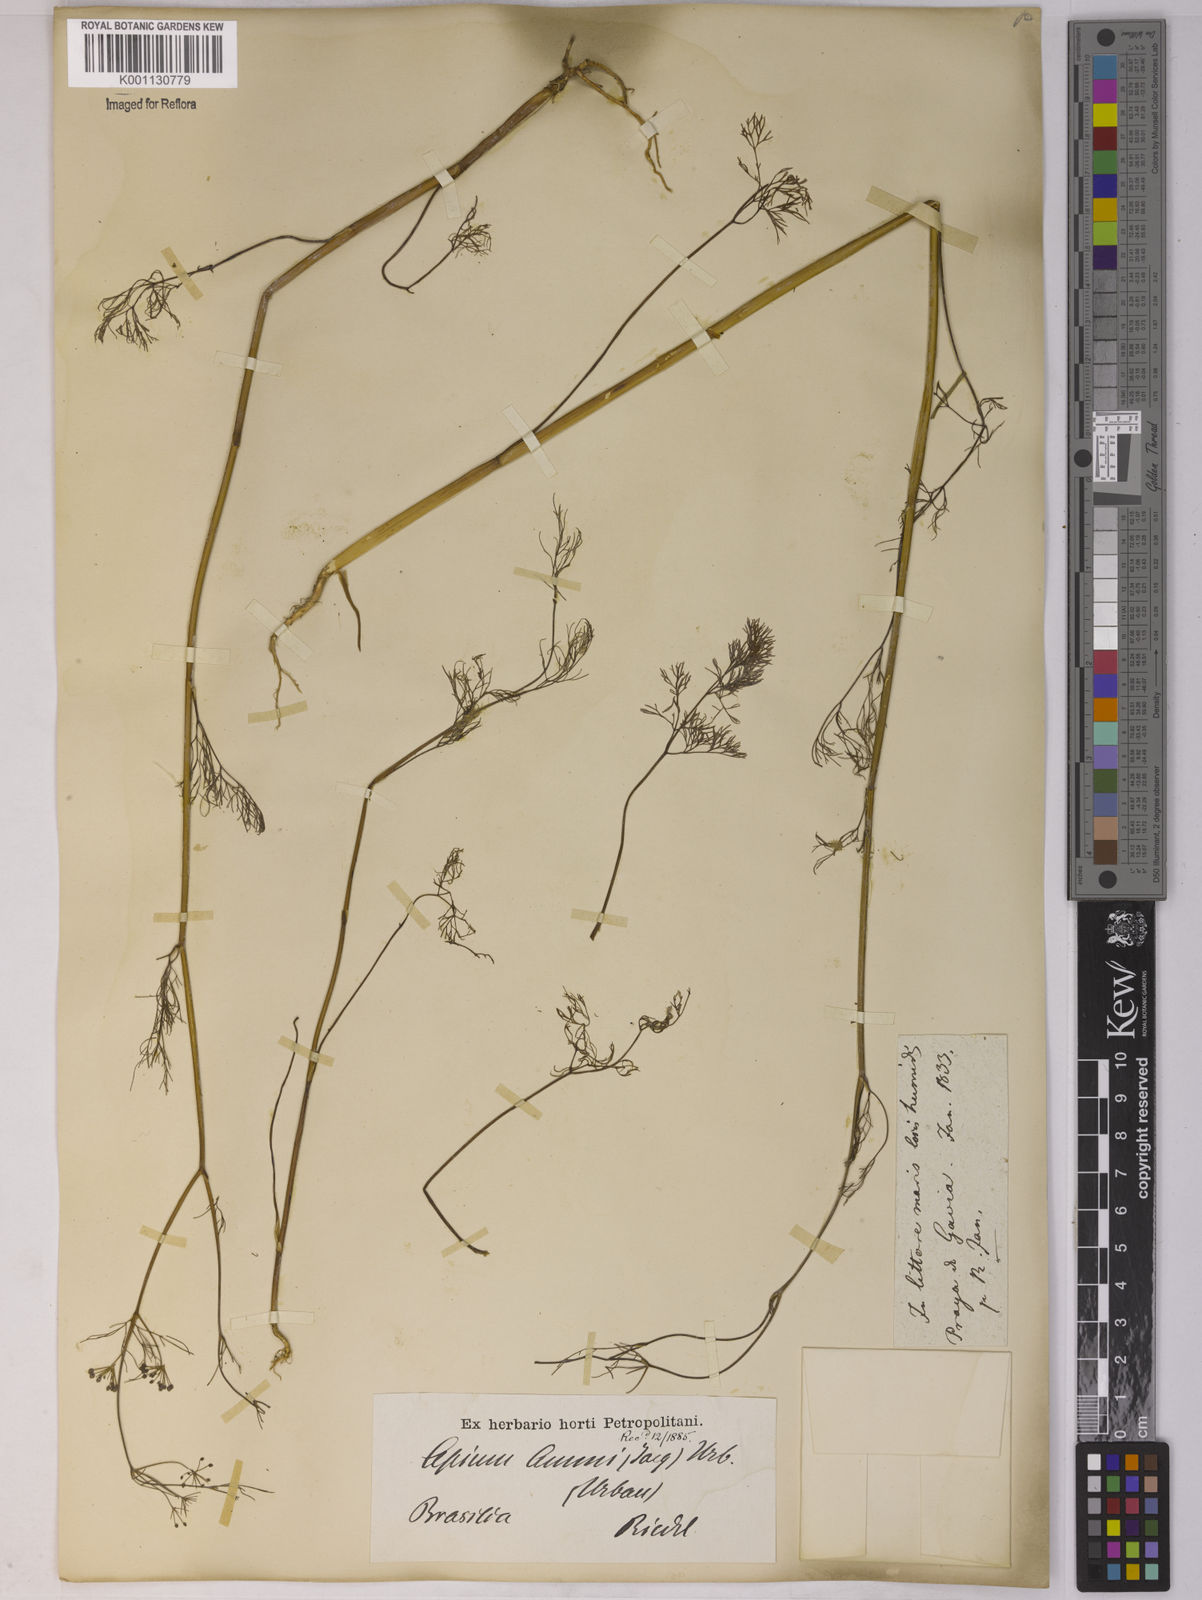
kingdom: Plantae
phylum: Tracheophyta
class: Magnoliopsida
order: Apiales
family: Apiaceae
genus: Apium
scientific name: Apium
